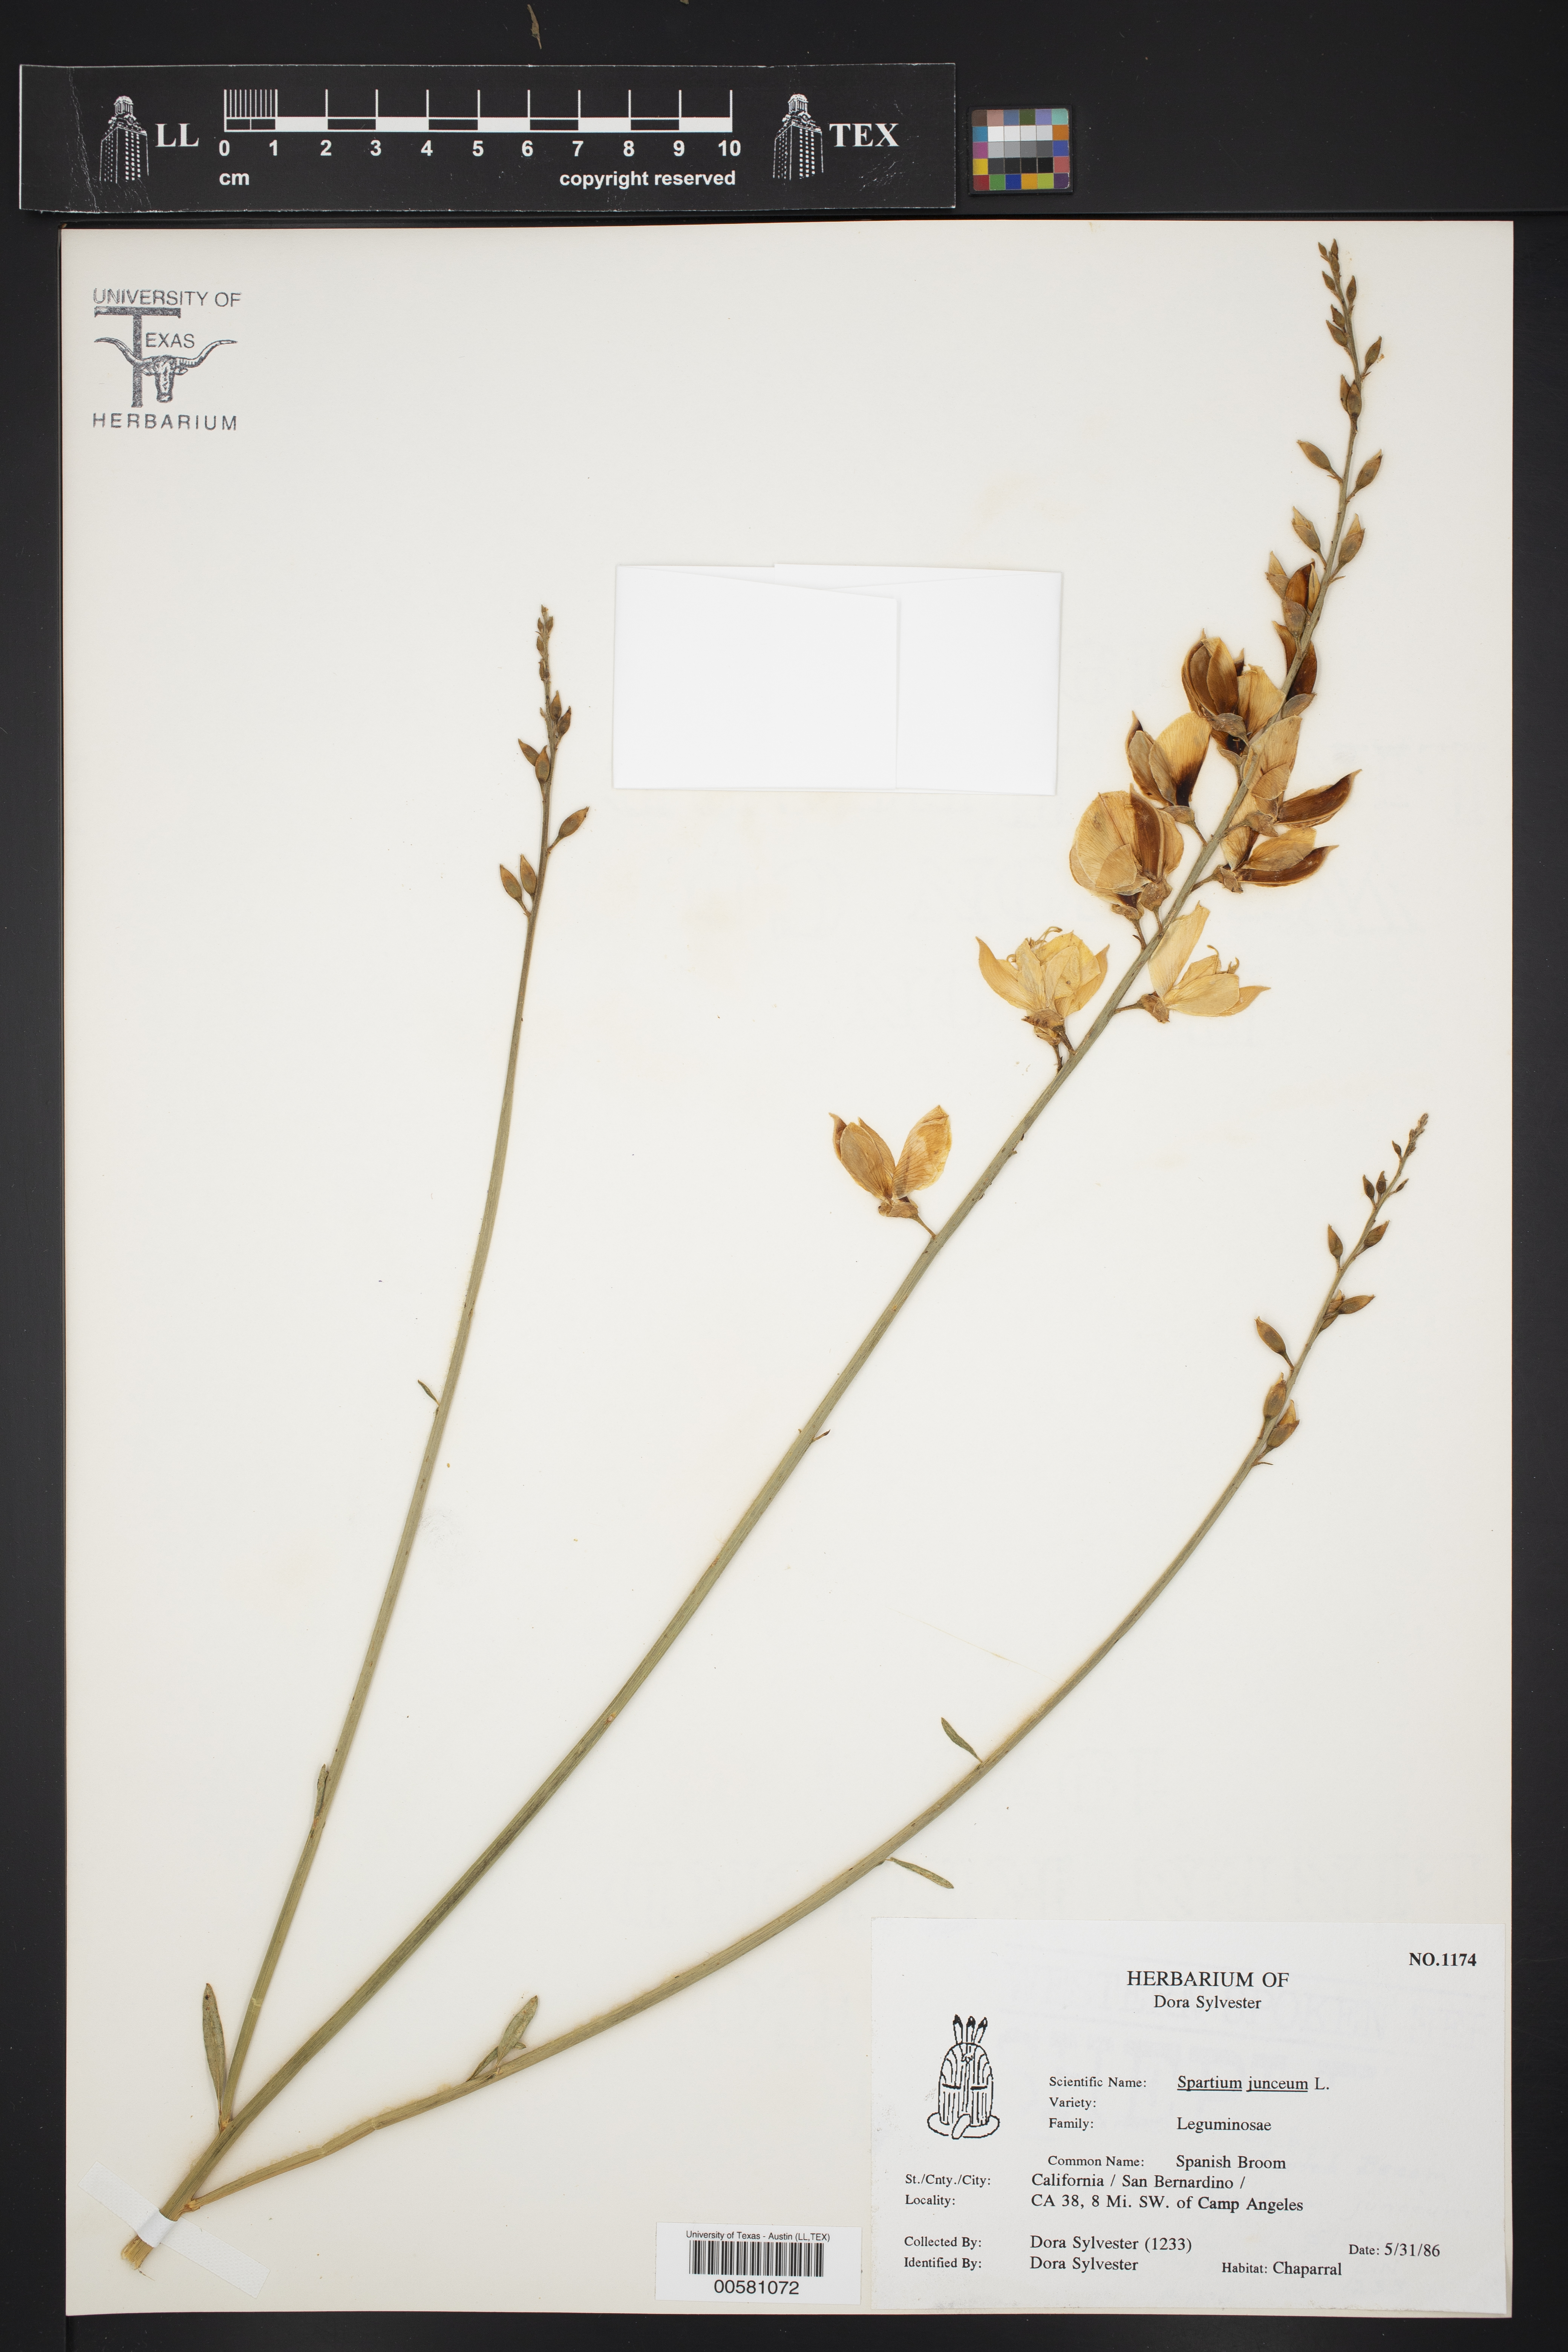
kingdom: Plantae
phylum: Tracheophyta
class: Magnoliopsida
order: Fabales
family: Fabaceae
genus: Spartium
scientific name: Spartium junceum
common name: Spanish broom
